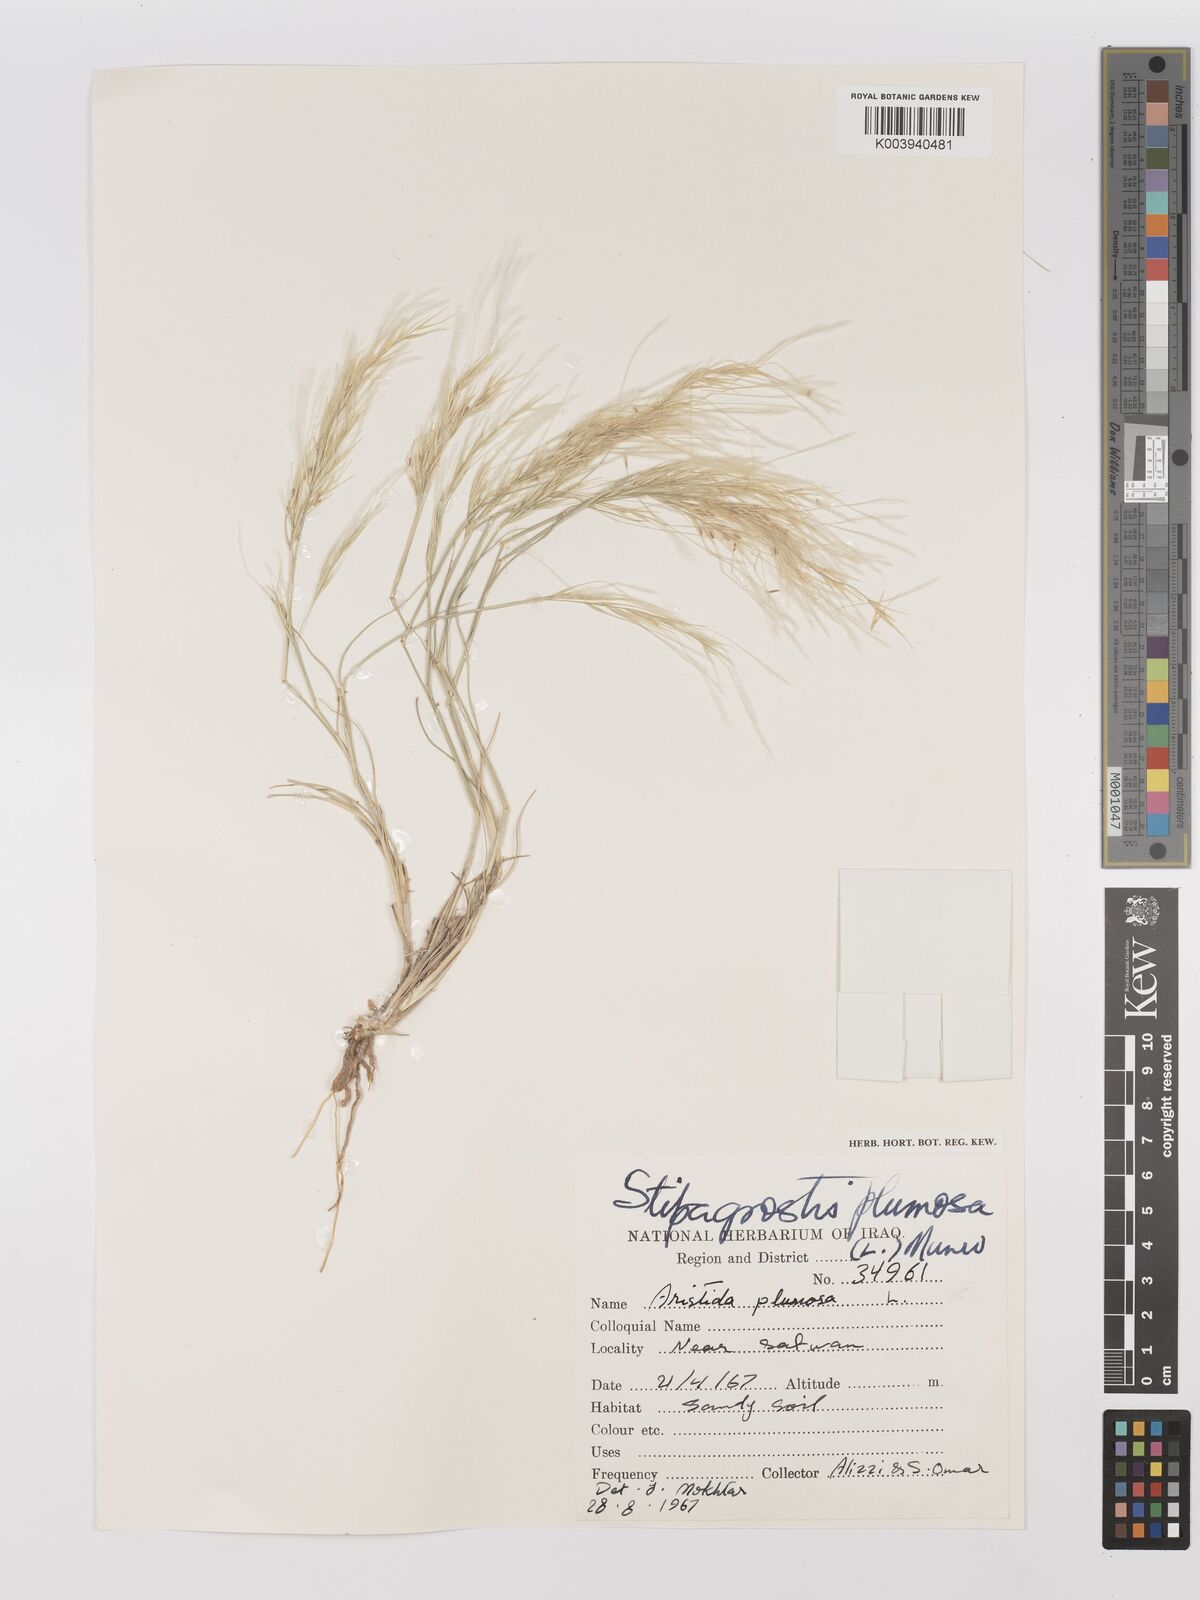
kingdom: Plantae
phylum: Tracheophyta
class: Liliopsida
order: Poales
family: Poaceae
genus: Stipagrostis
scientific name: Stipagrostis plumosa
